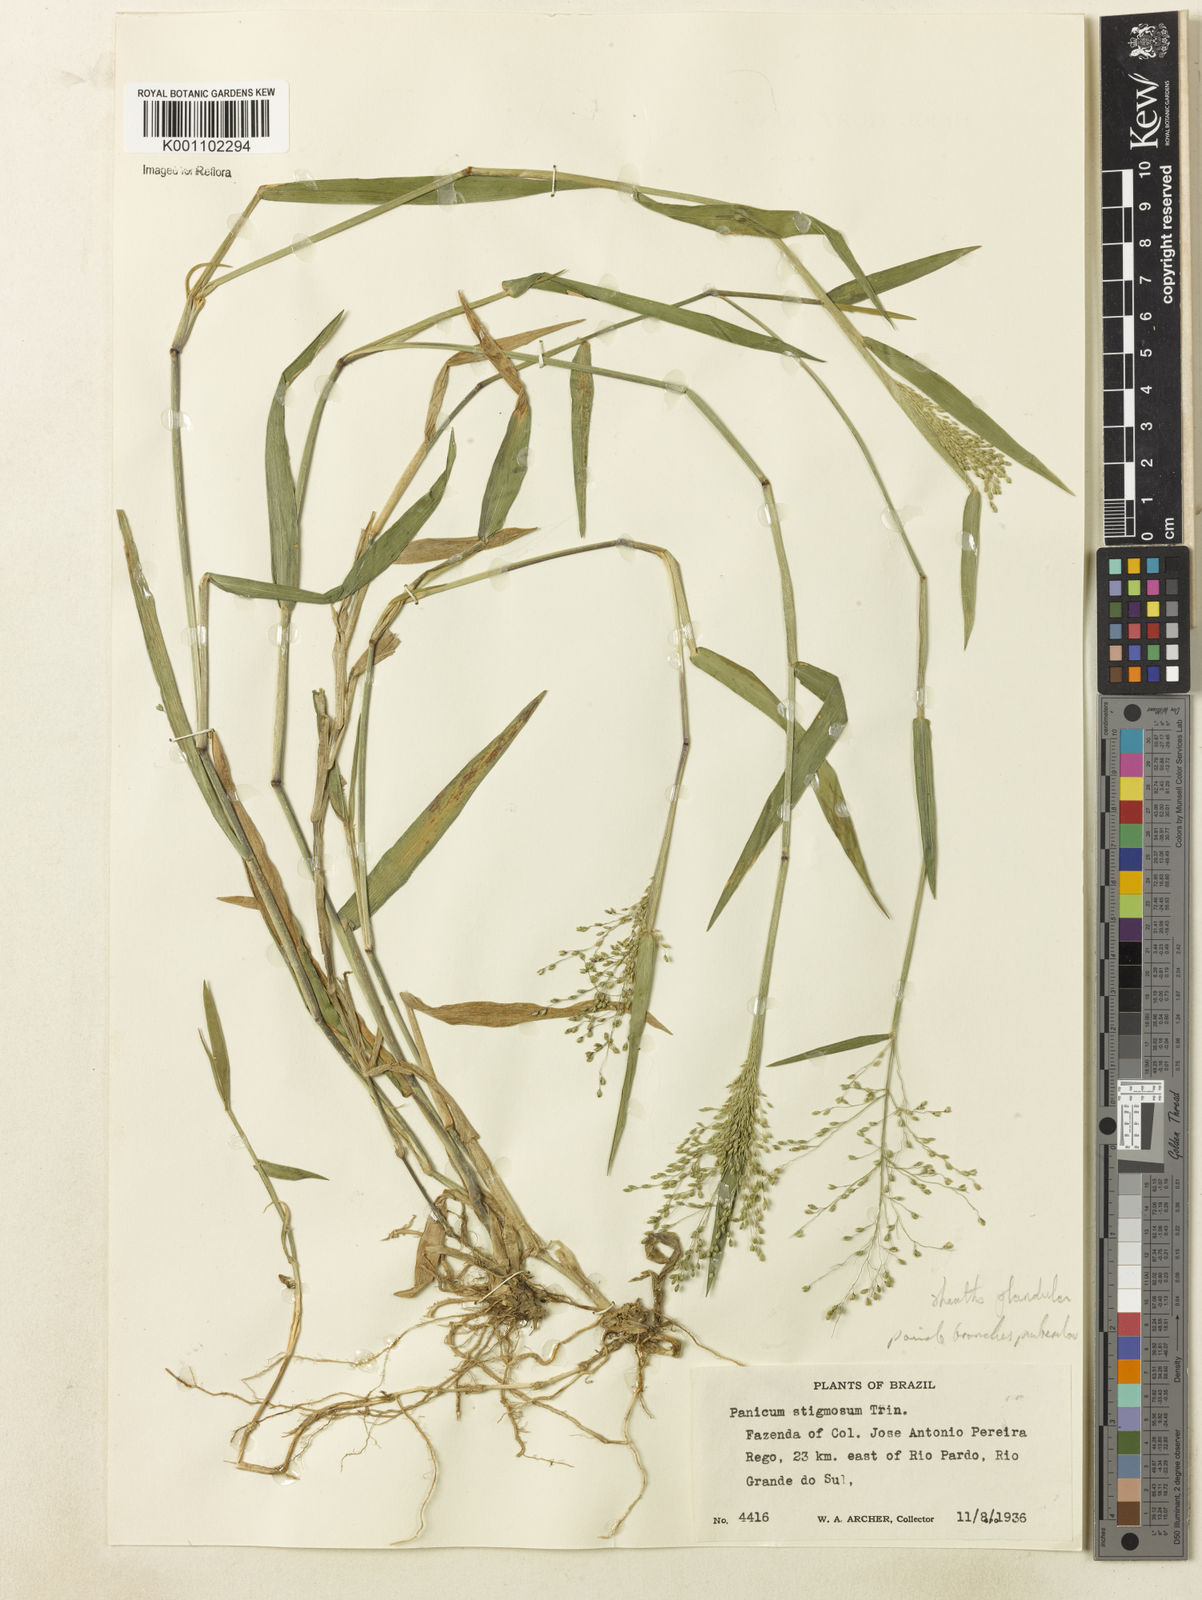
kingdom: Plantae
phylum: Tracheophyta
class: Liliopsida
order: Poales
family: Poaceae
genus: Dichanthelium
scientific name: Dichanthelium stigmosum
